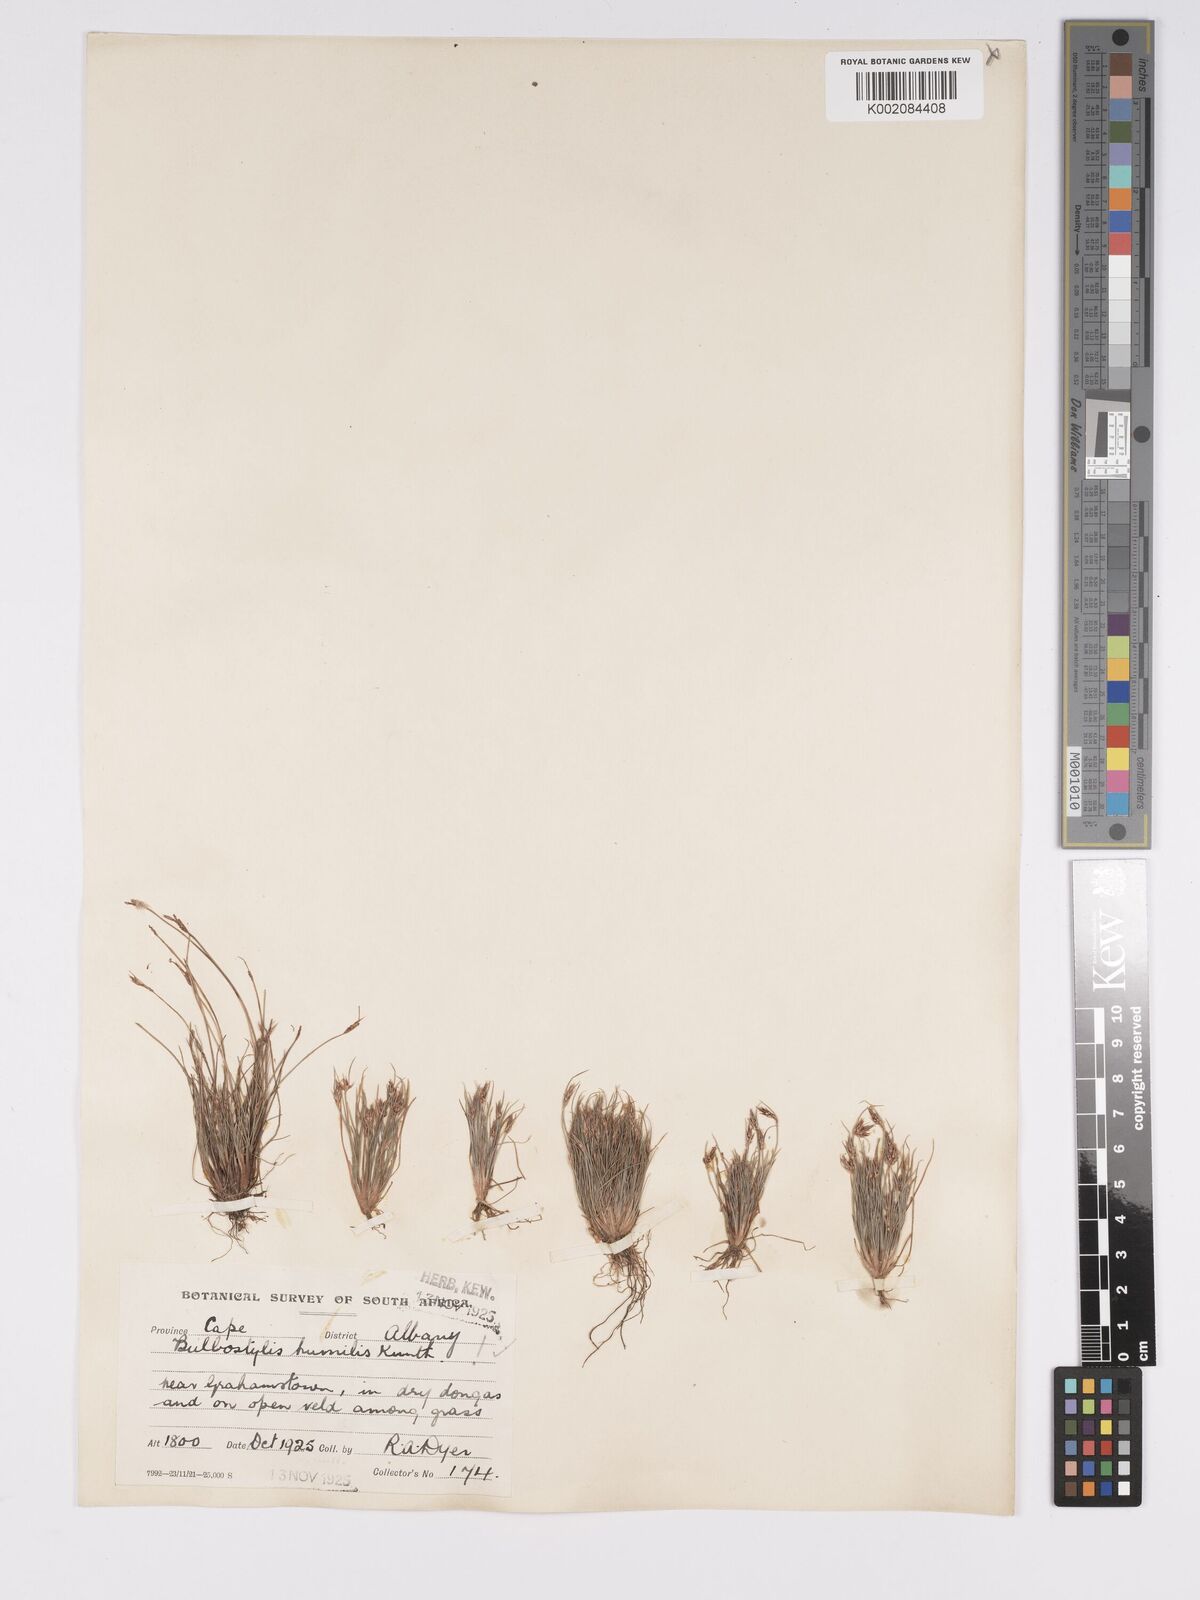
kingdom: Plantae
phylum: Tracheophyta
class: Liliopsida
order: Poales
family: Cyperaceae
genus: Bulbostylis
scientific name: Bulbostylis humilis
